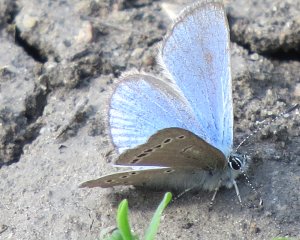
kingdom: Animalia
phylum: Arthropoda
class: Insecta
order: Lepidoptera
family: Lycaenidae
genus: Glaucopsyche
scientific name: Glaucopsyche lygdamus
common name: Silvery Blue
